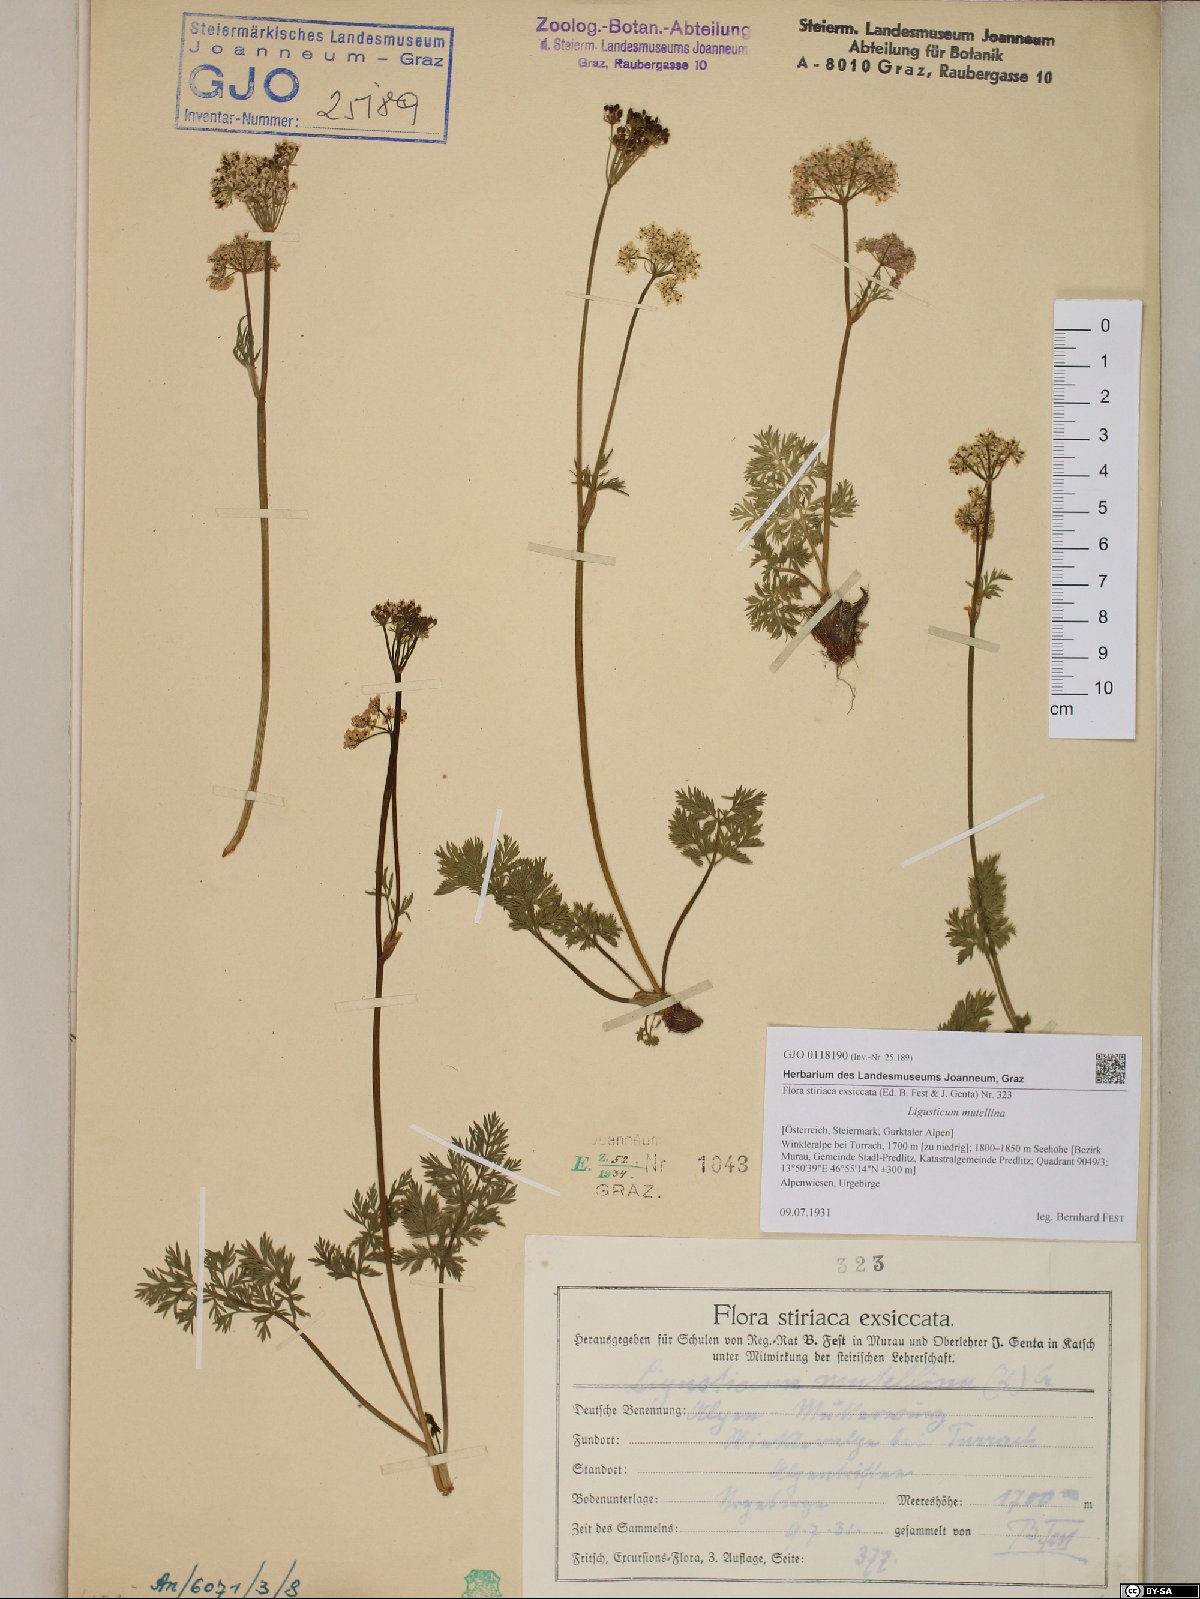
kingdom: Plantae
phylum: Tracheophyta
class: Magnoliopsida
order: Apiales
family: Apiaceae
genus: Mutellina
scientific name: Mutellina adonidifolia
